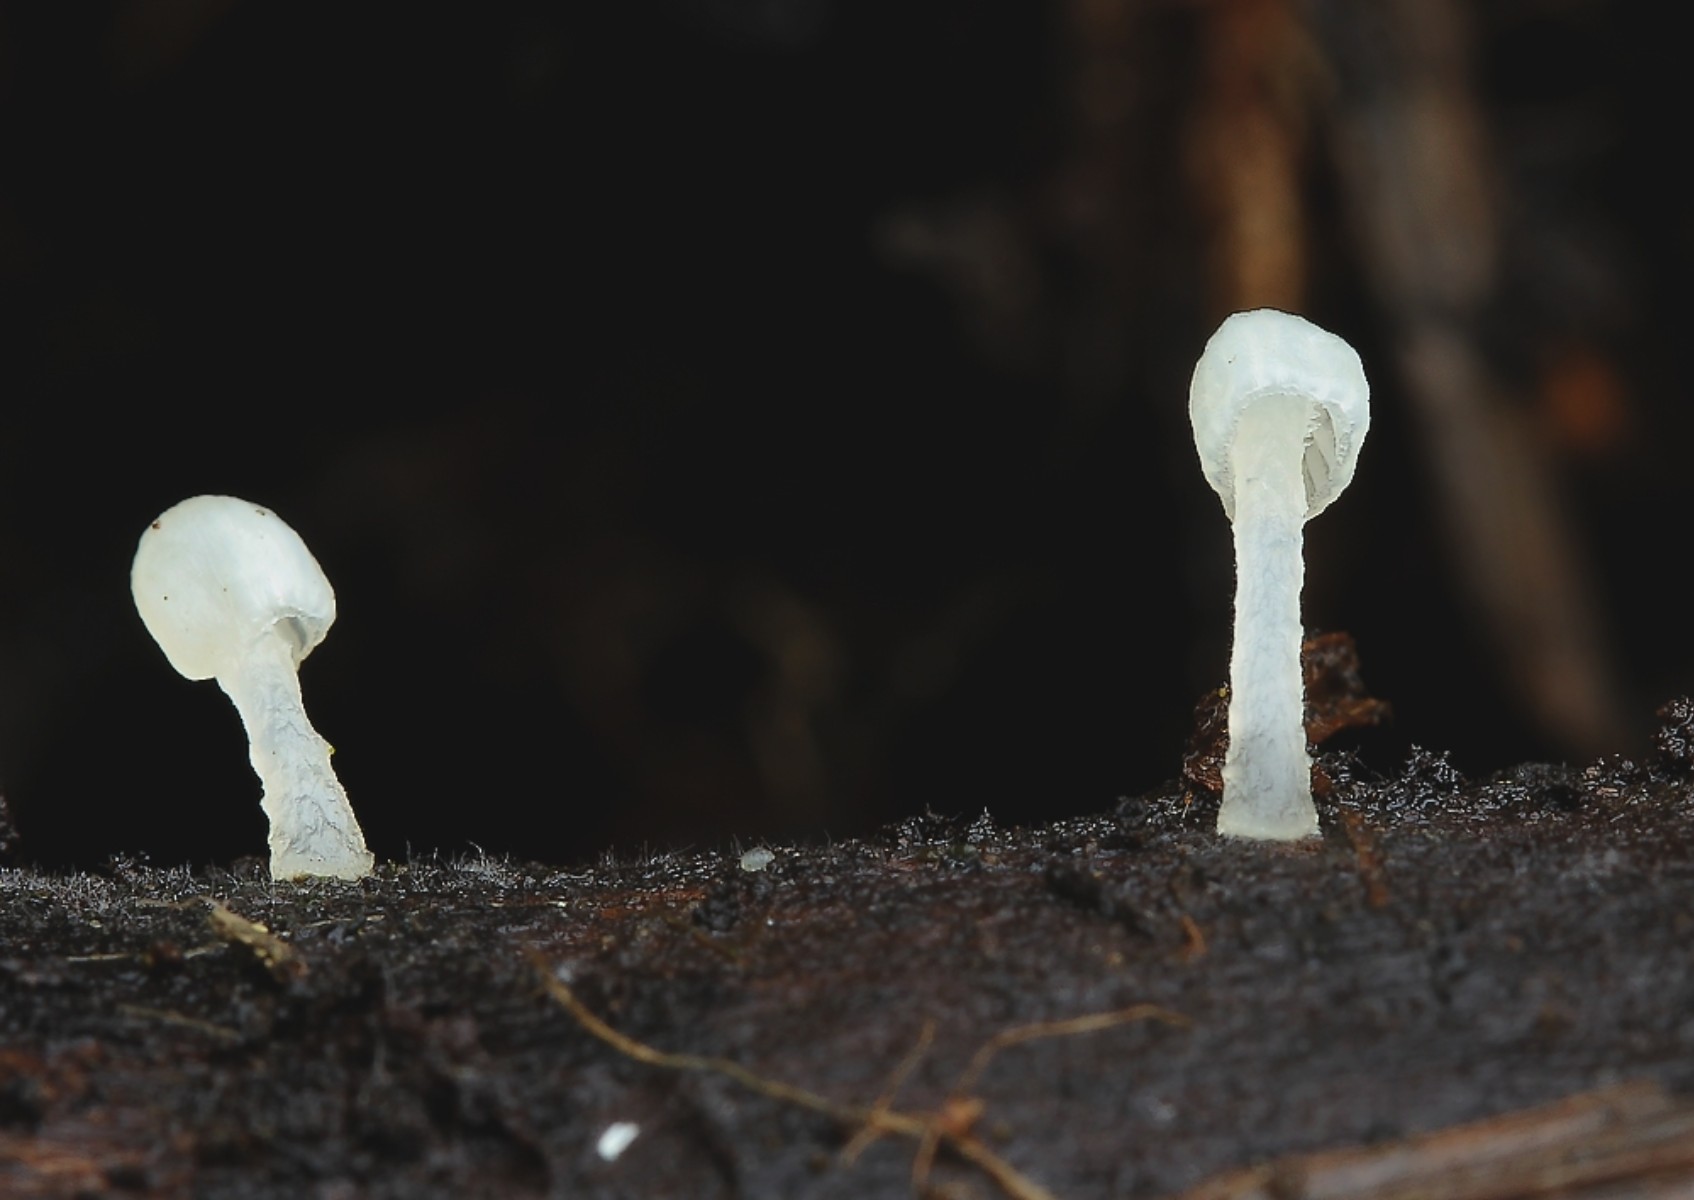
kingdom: Fungi
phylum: Basidiomycota
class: Agaricomycetes
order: Agaricales
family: Tricholomataceae
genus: Delicatula
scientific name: Delicatula integrella
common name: slørhuesvamp
